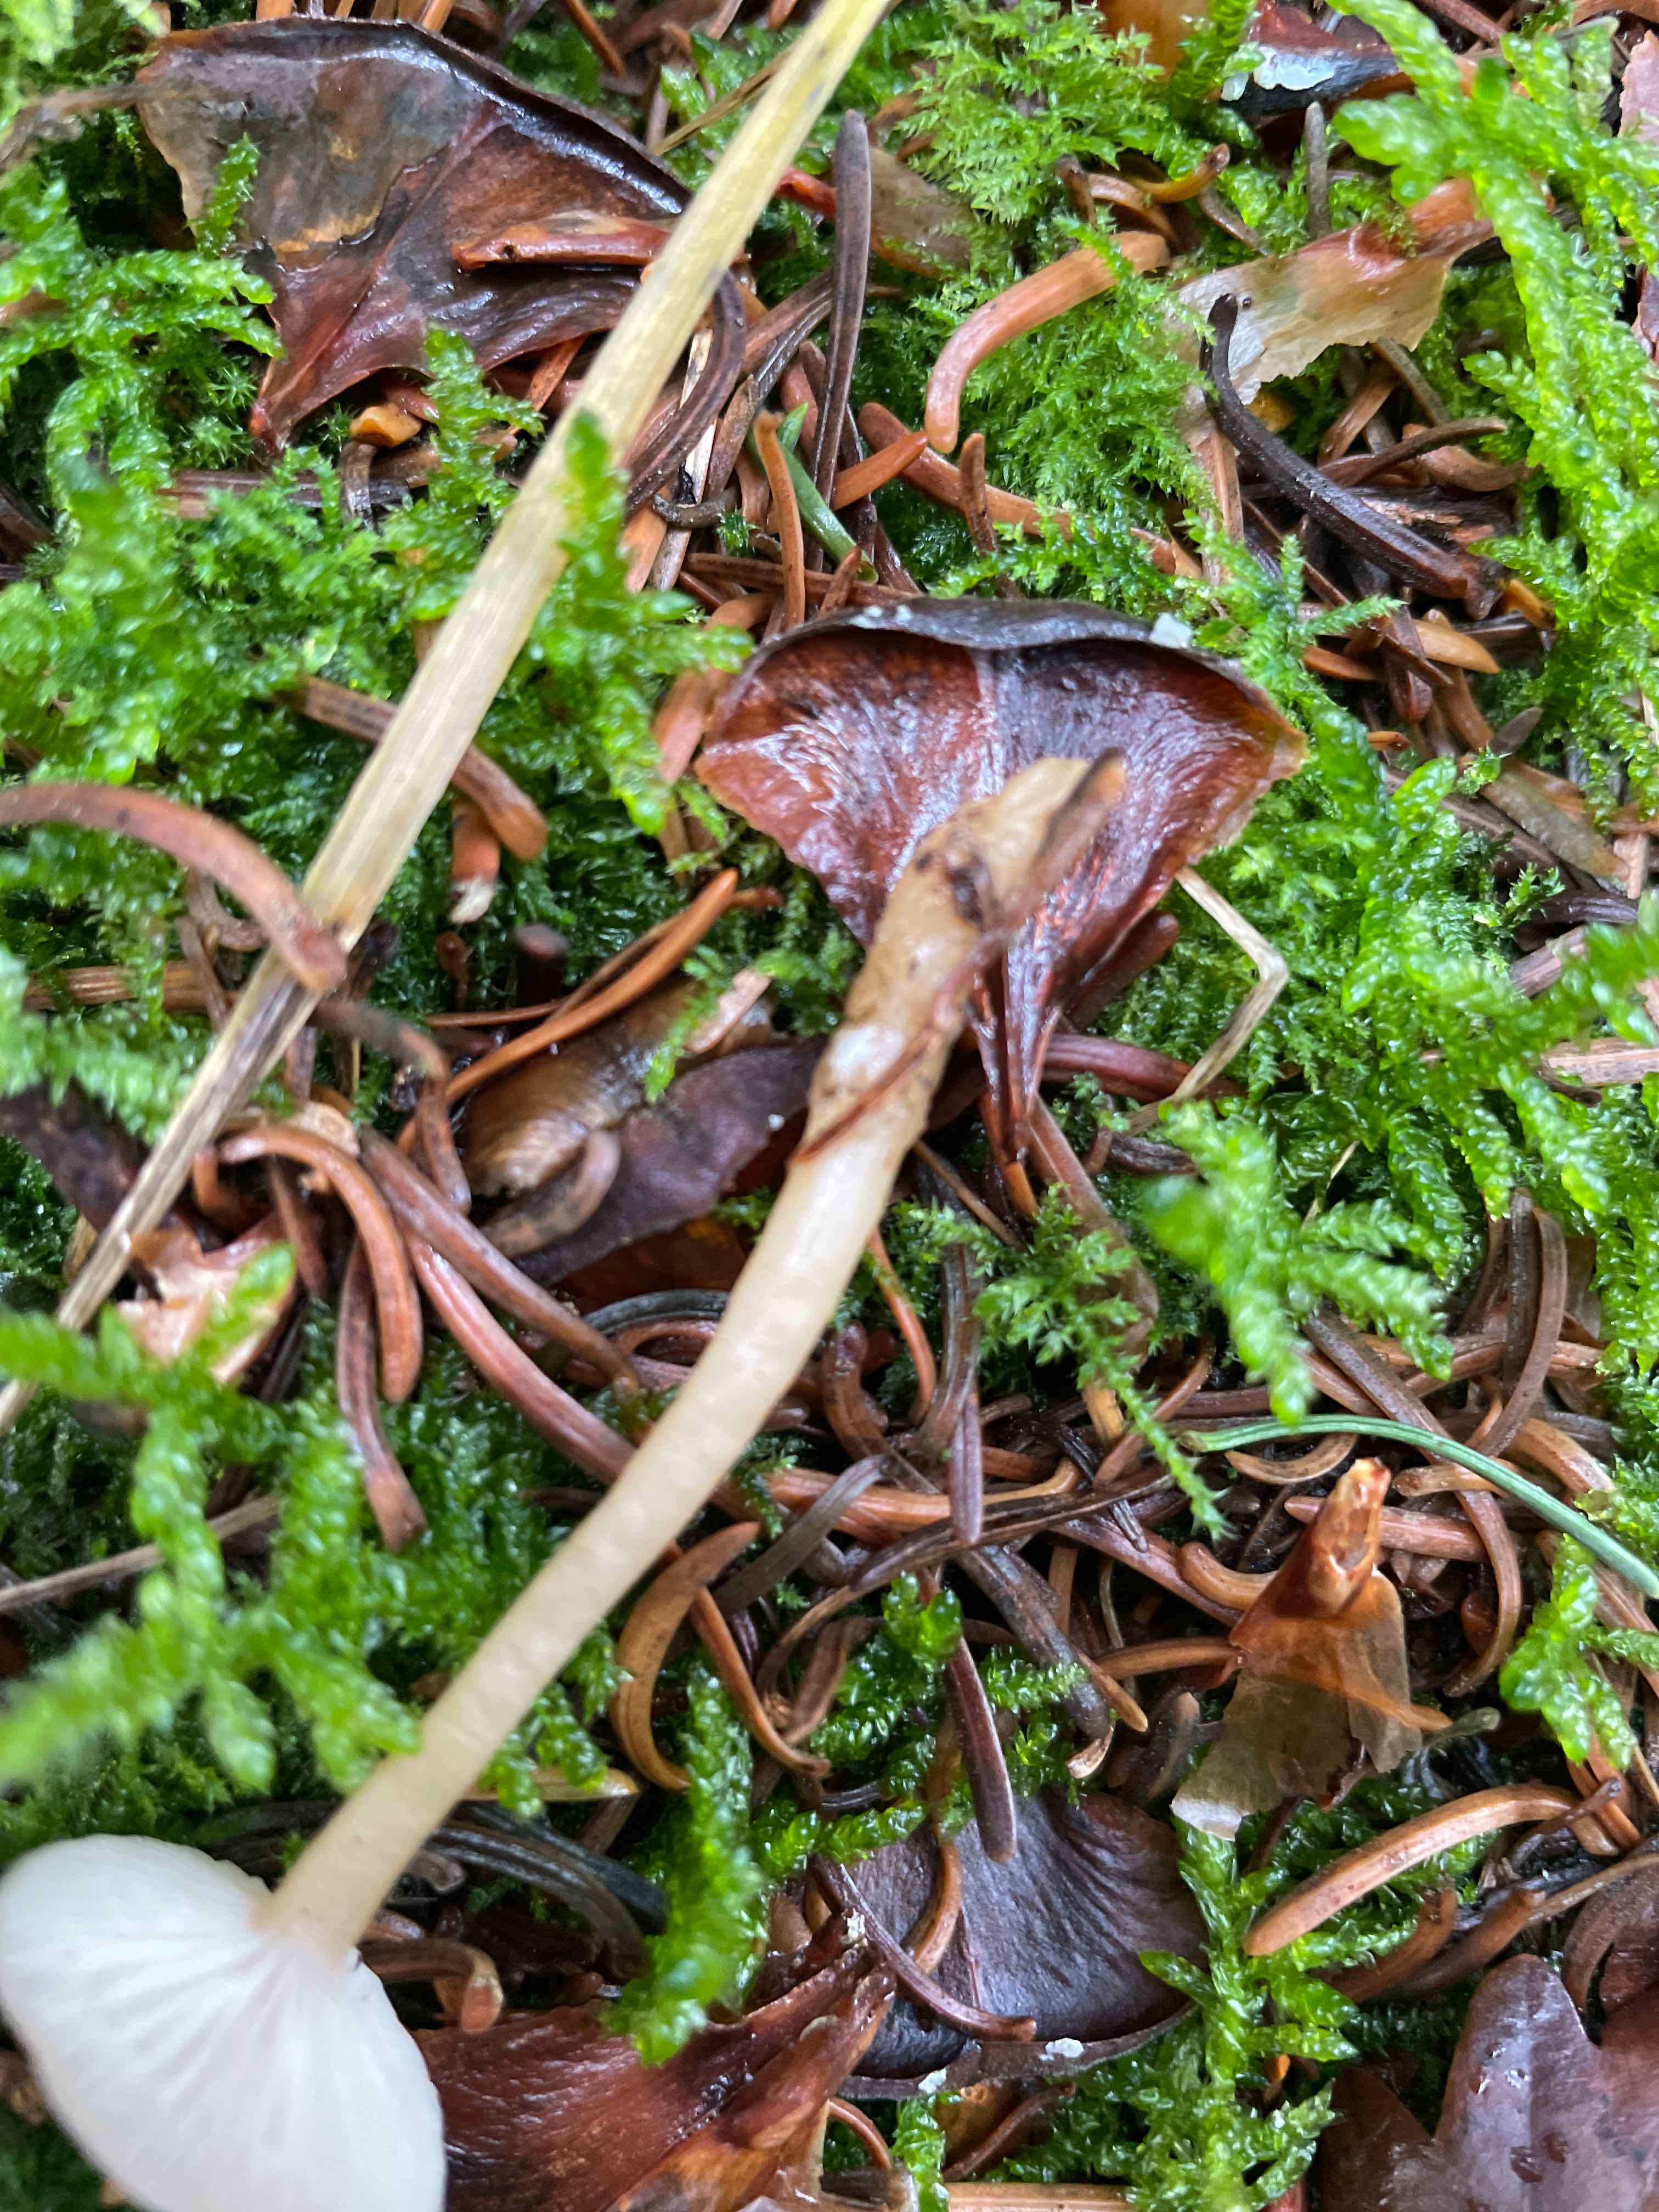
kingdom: Fungi
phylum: Basidiomycota
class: Agaricomycetes
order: Agaricales
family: Tricholomataceae
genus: Clitocybe
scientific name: Clitocybe fragrans
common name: vellugtende tragthat
